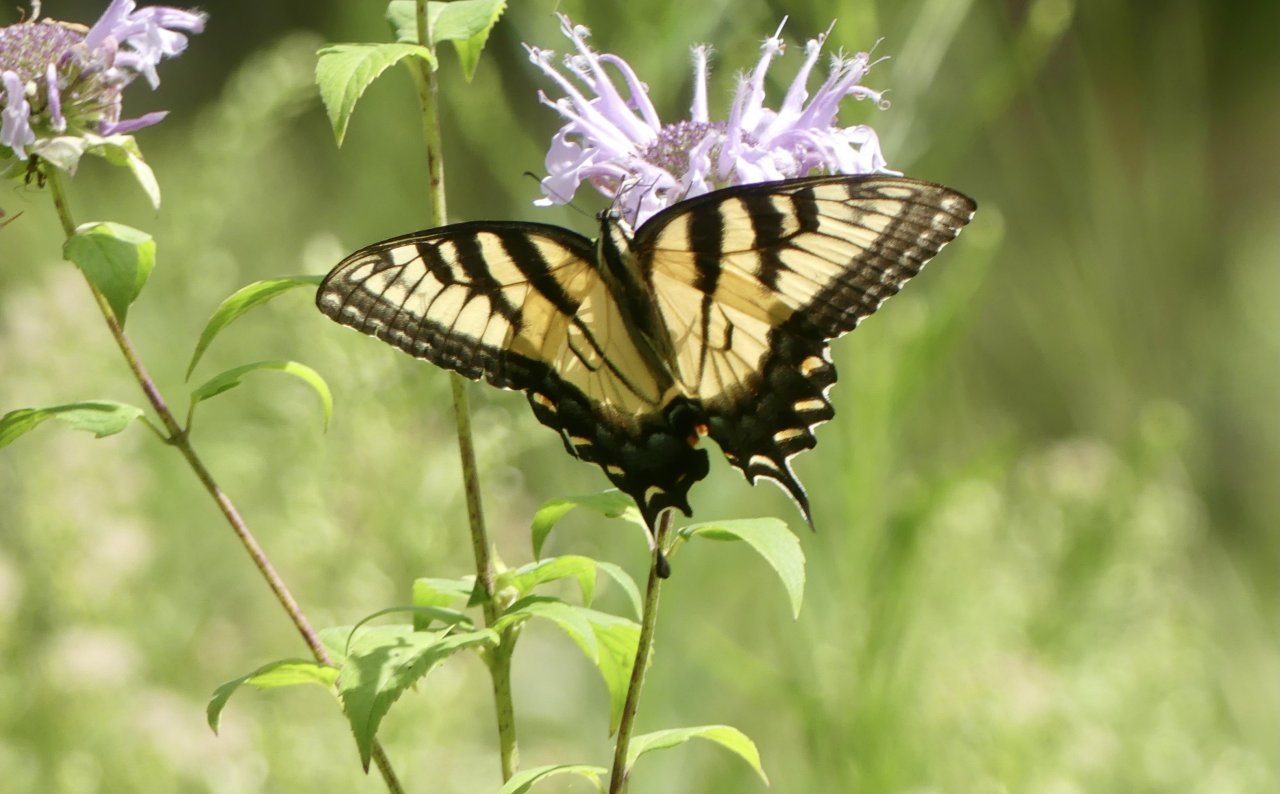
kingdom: Animalia
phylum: Arthropoda
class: Insecta
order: Lepidoptera
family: Papilionidae
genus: Pterourus
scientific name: Pterourus glaucus
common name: Eastern Tiger Swallowtail
